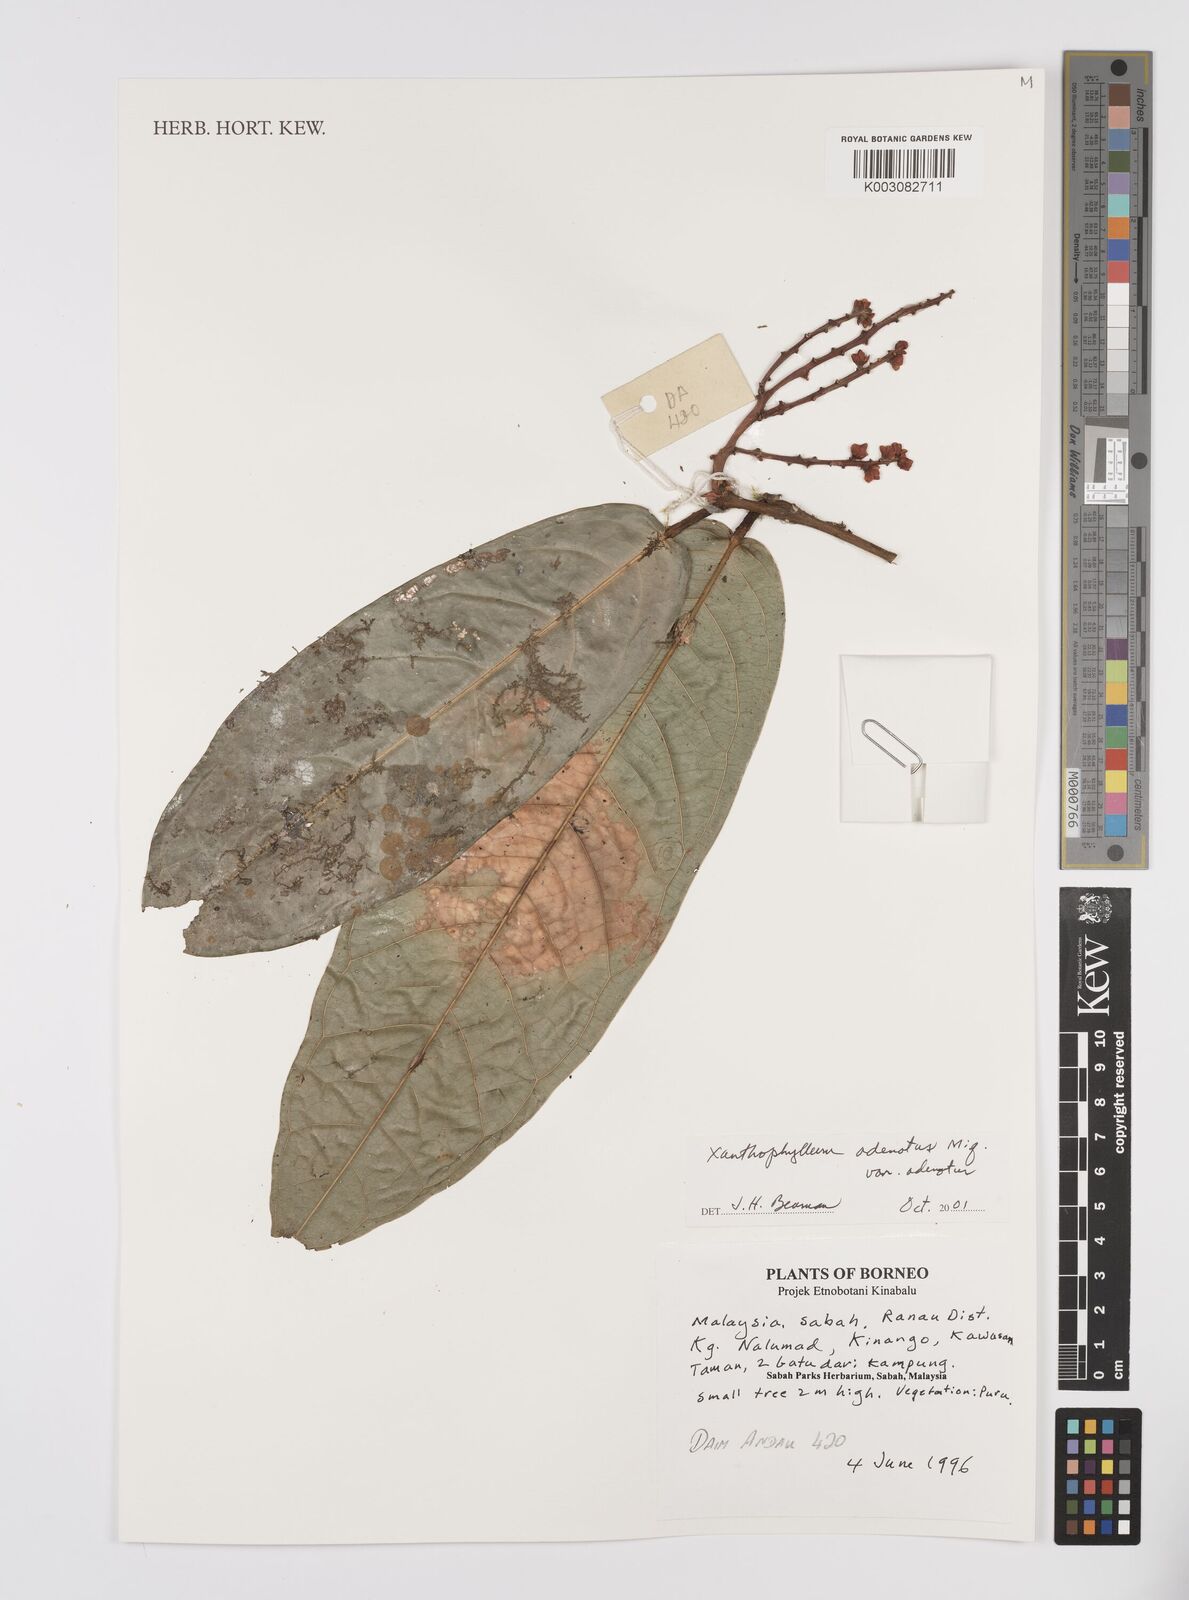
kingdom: Plantae
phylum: Tracheophyta
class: Magnoliopsida
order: Fabales
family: Polygalaceae
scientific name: Polygalaceae
